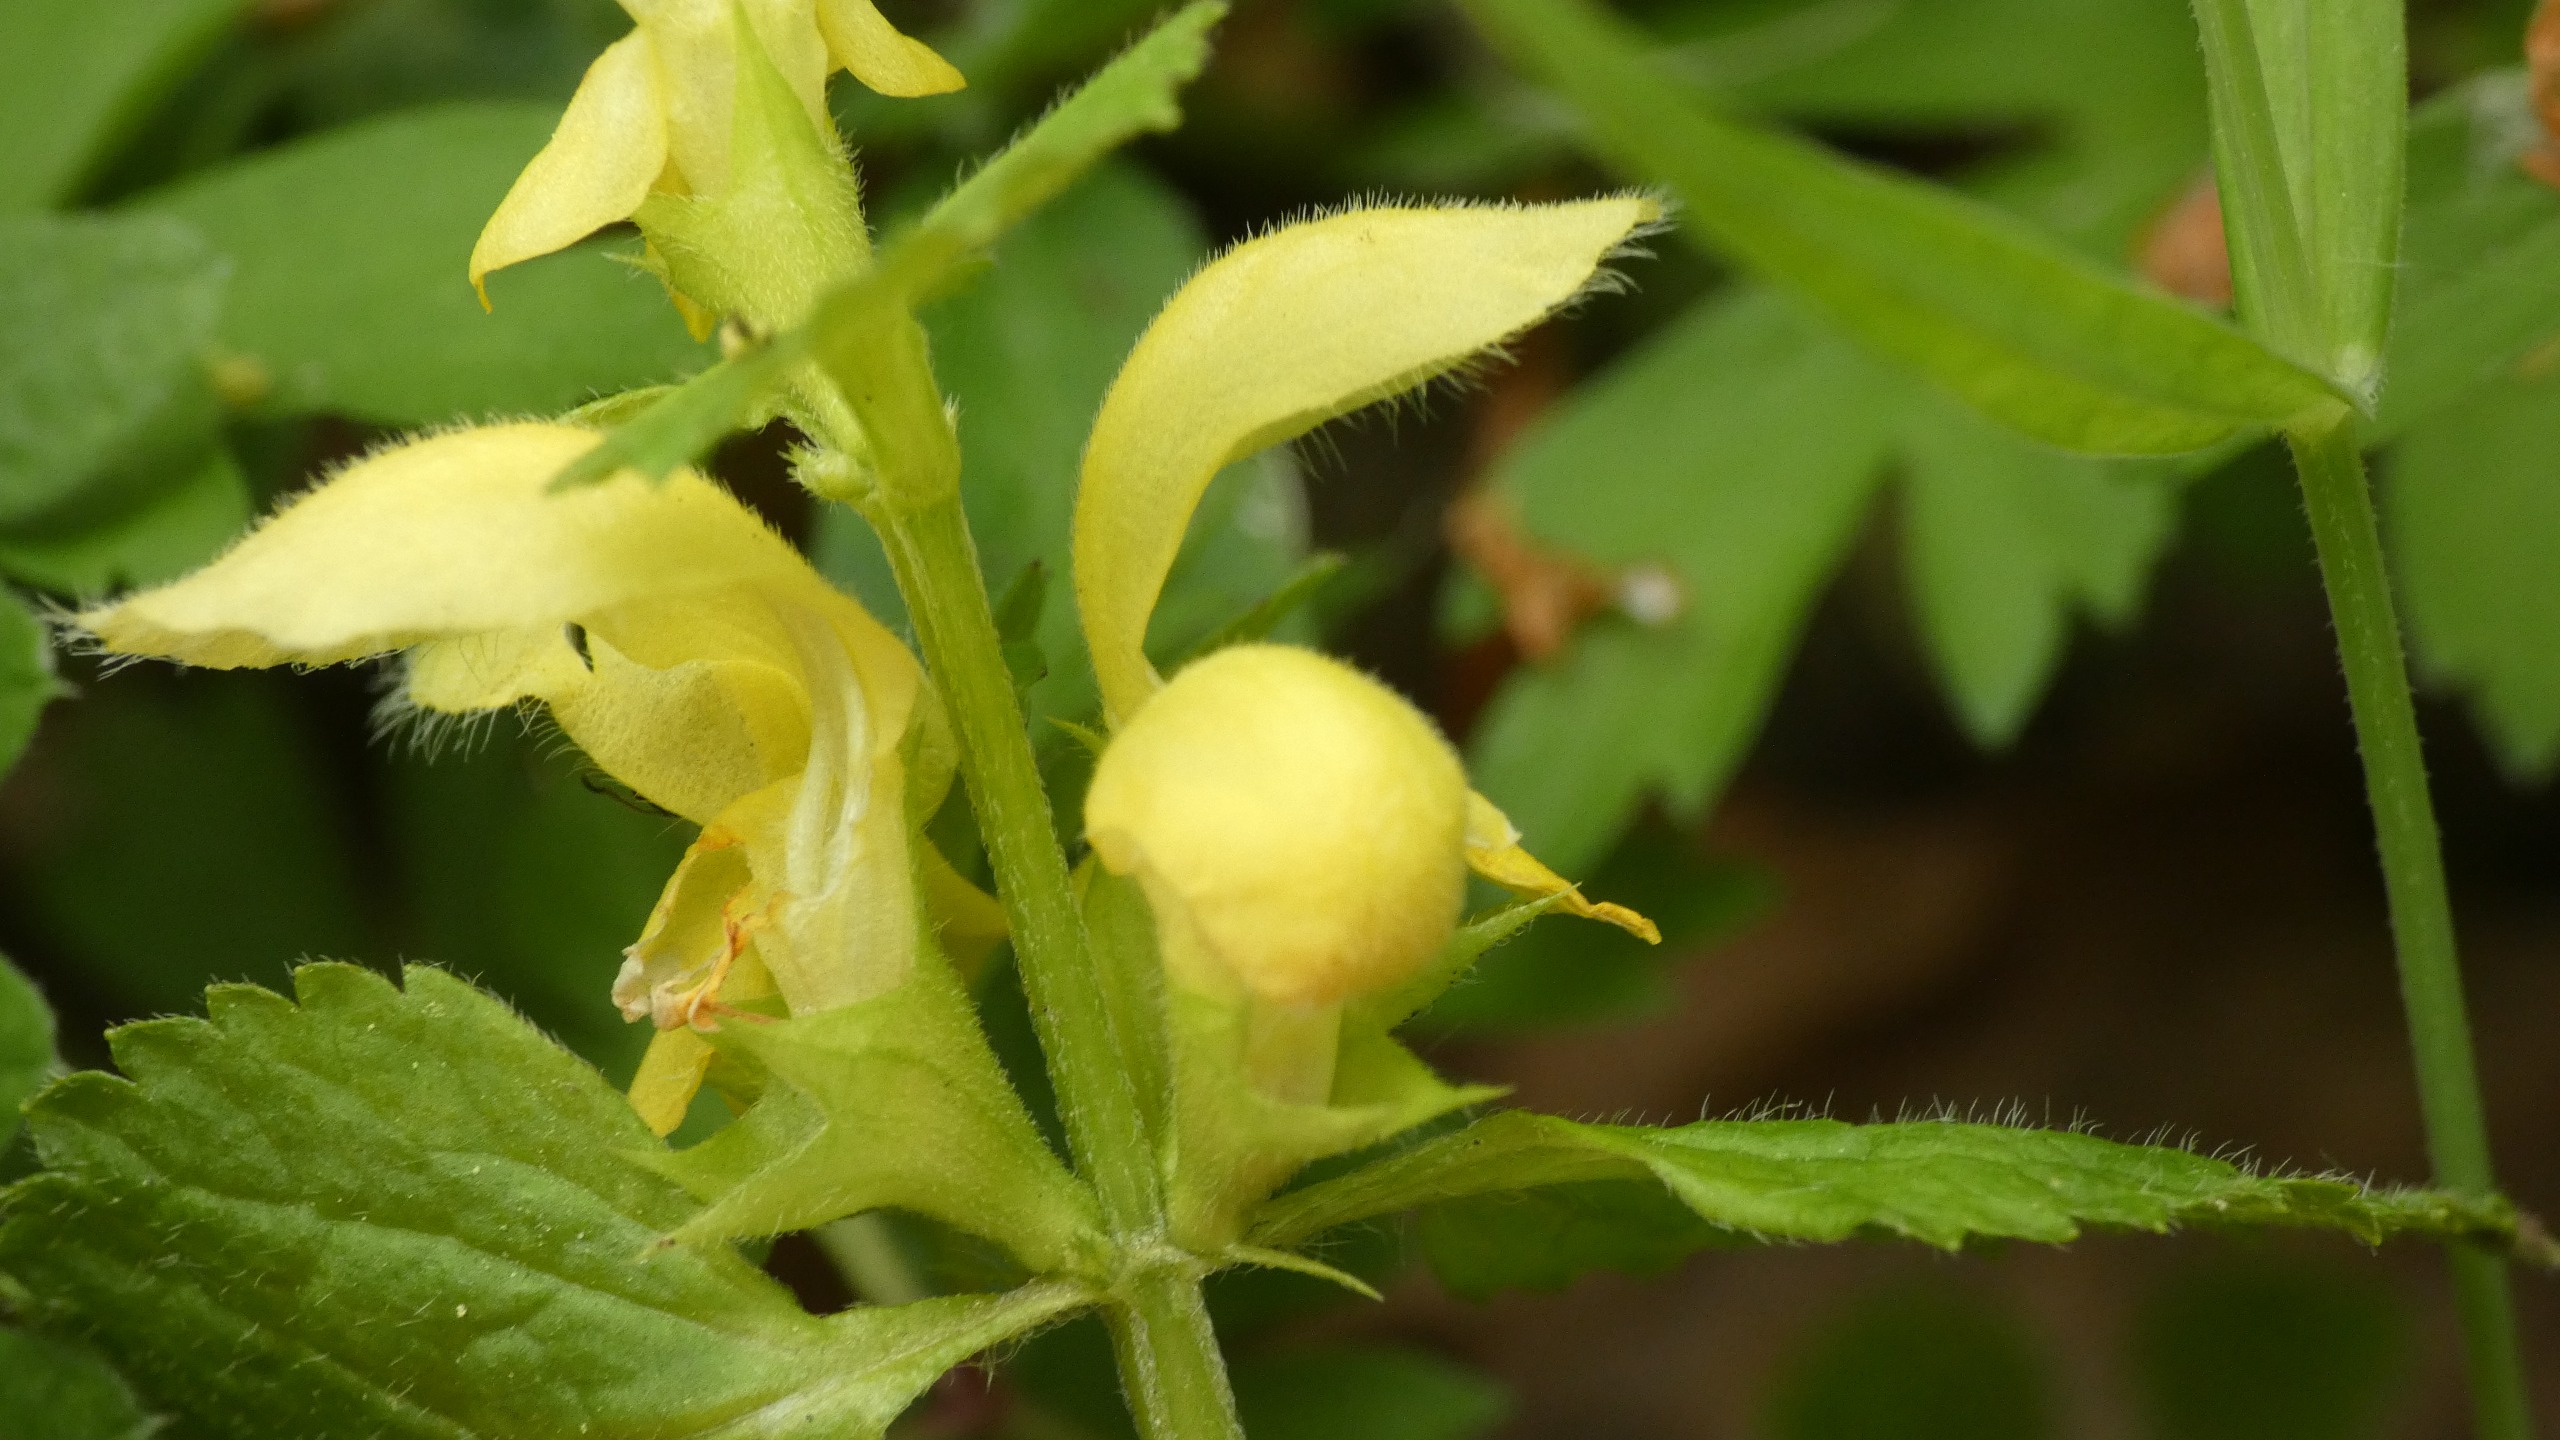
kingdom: Plantae
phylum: Tracheophyta
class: Magnoliopsida
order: Lamiales
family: Lamiaceae
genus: Lamium
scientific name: Lamium galeobdolon
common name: Guldnælde
